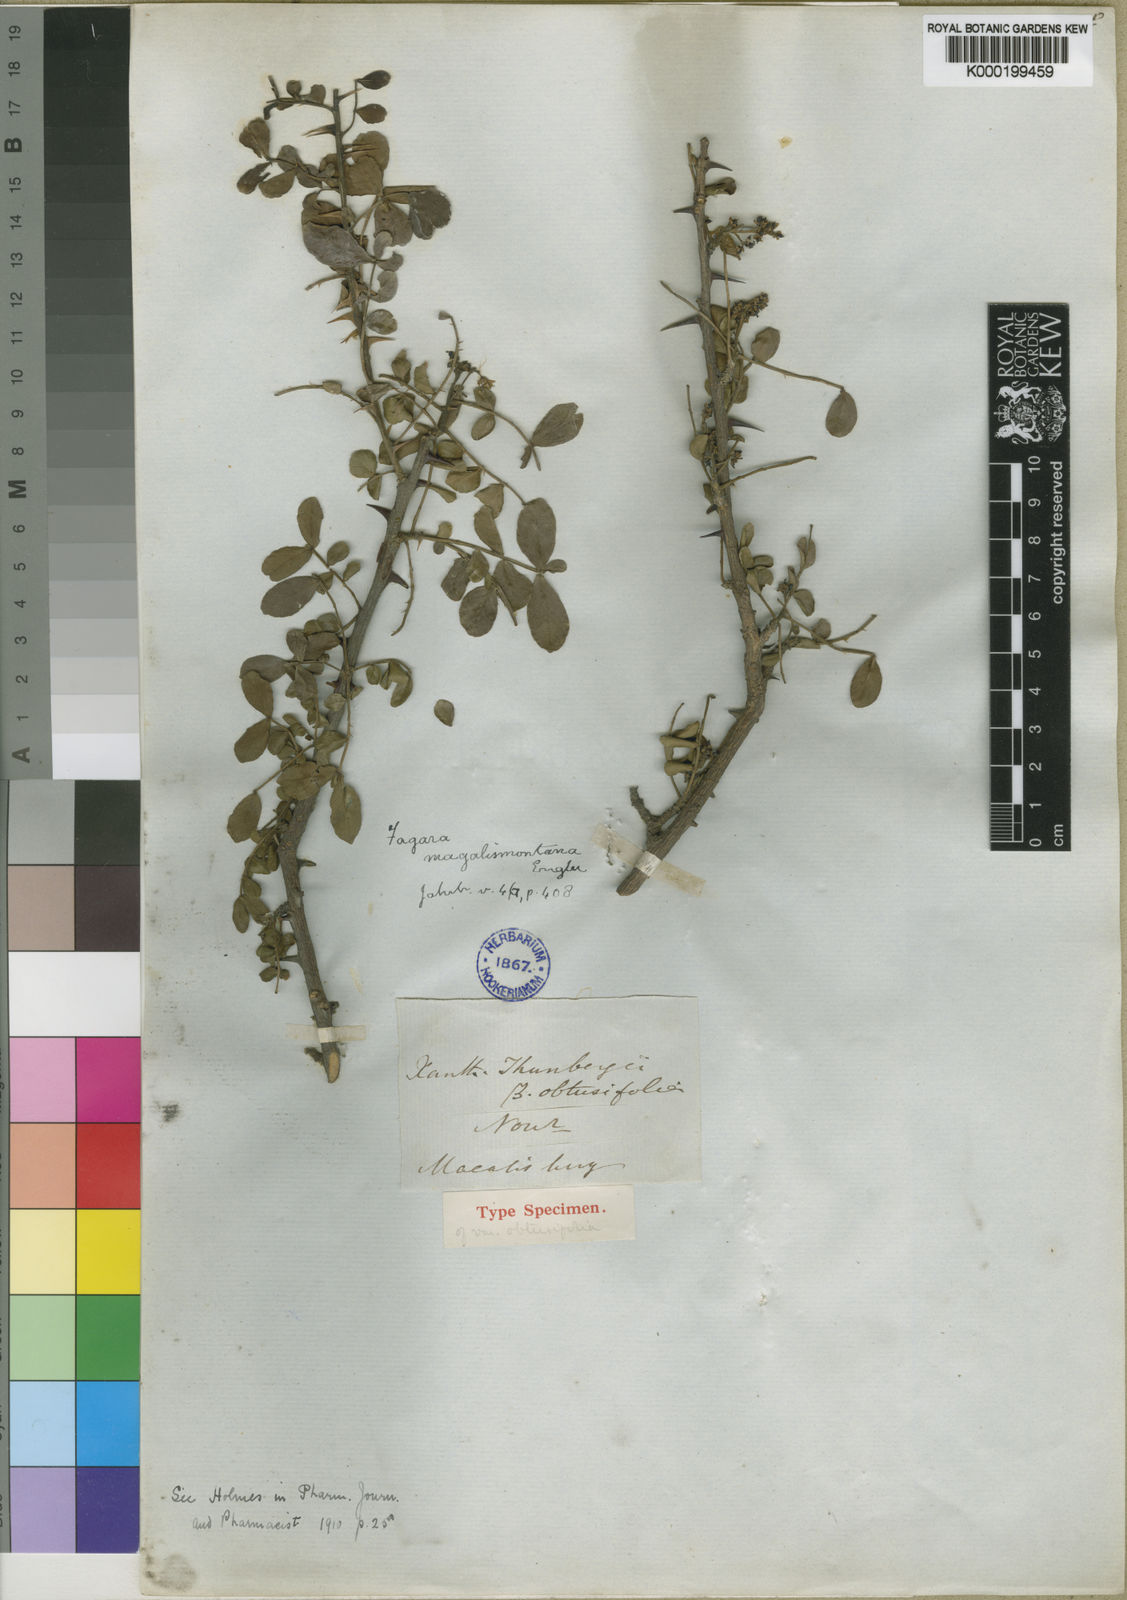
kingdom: Plantae
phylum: Tracheophyta
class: Magnoliopsida
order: Sapindales
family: Rutaceae
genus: Zanthoxylum
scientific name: Zanthoxylum capense
